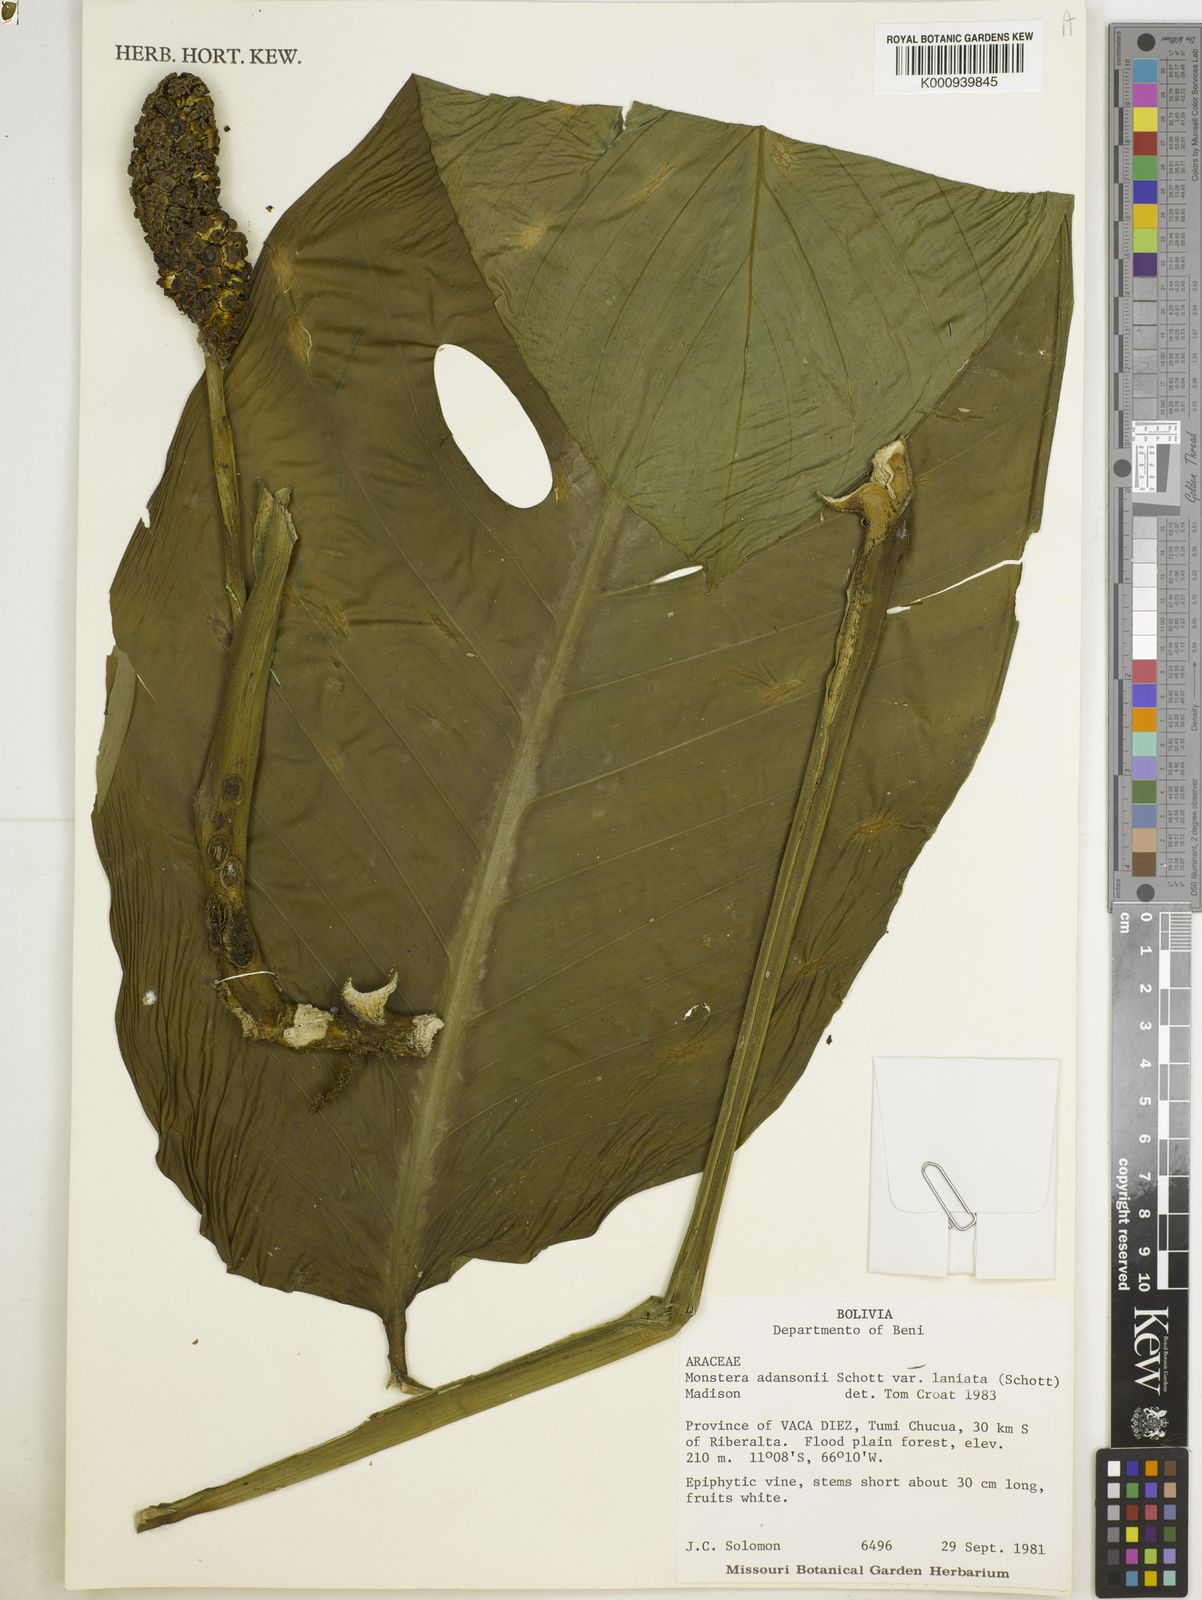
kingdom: Plantae
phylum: Tracheophyta
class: Liliopsida
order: Alismatales
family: Araceae
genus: Monstera
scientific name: Monstera adansonii
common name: Tarovine
